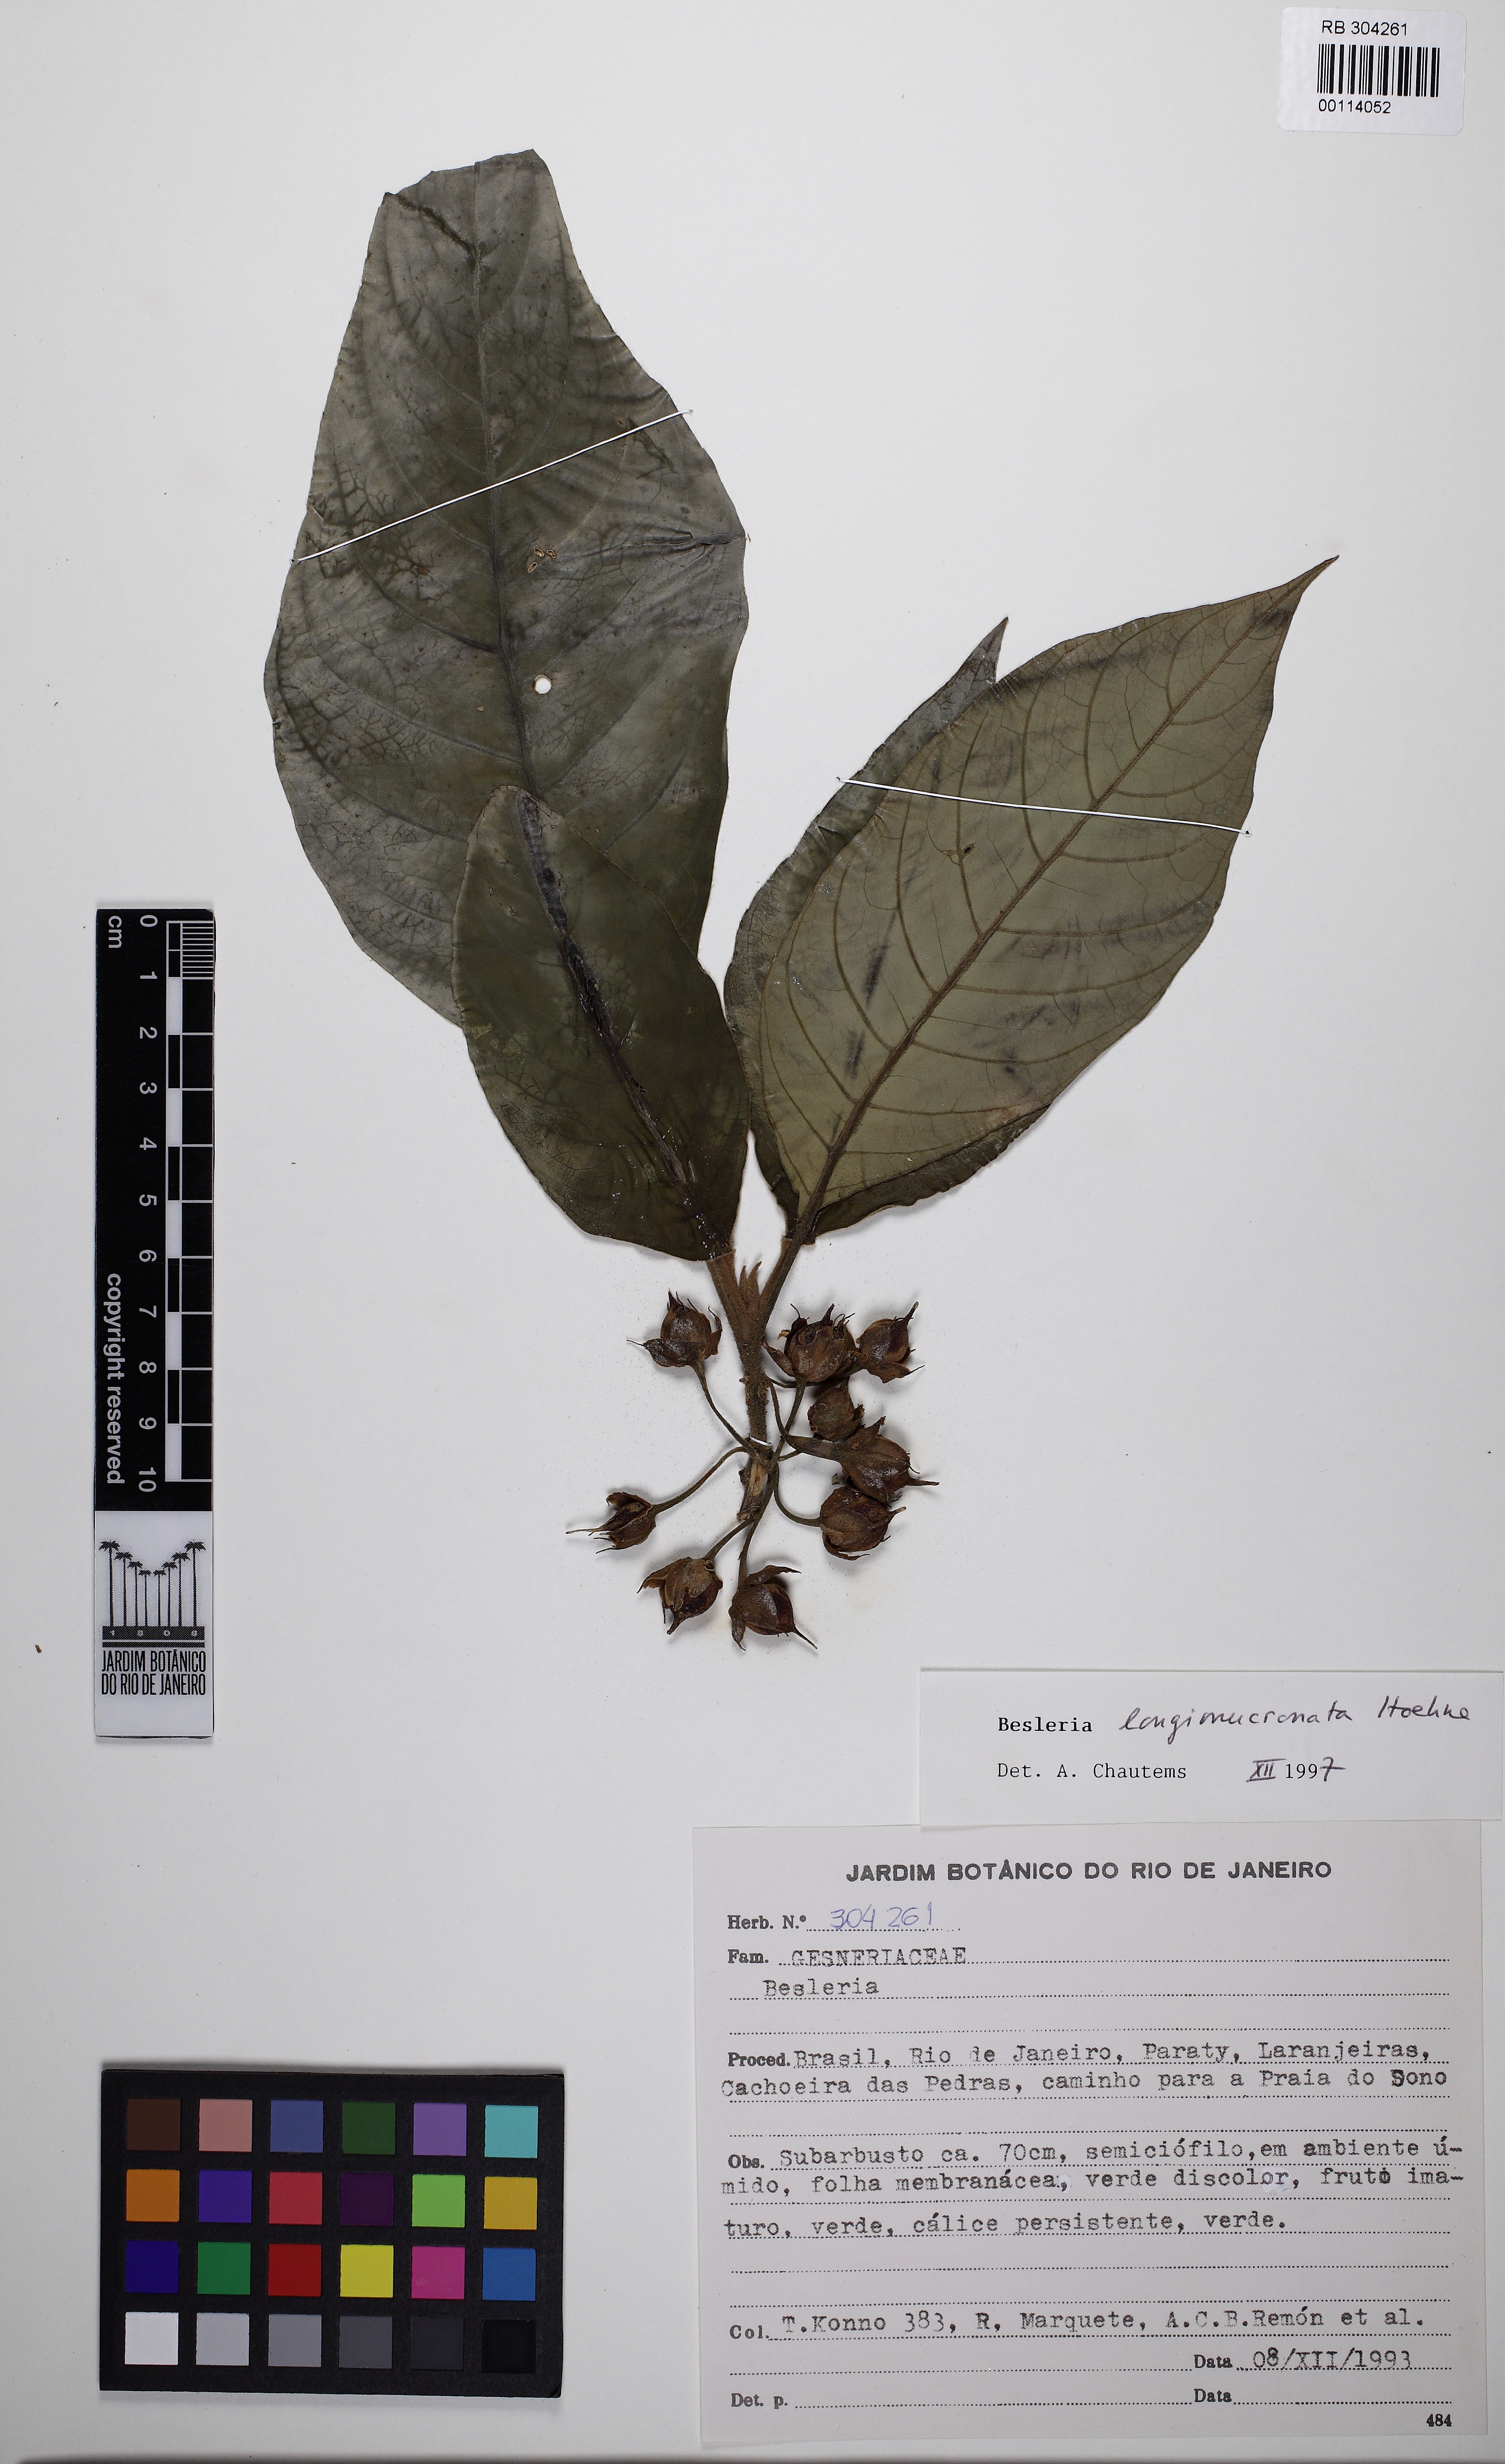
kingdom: Plantae
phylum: Tracheophyta
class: Magnoliopsida
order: Lamiales
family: Gesneriaceae
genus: Besleria
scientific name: Besleria longimucronata
